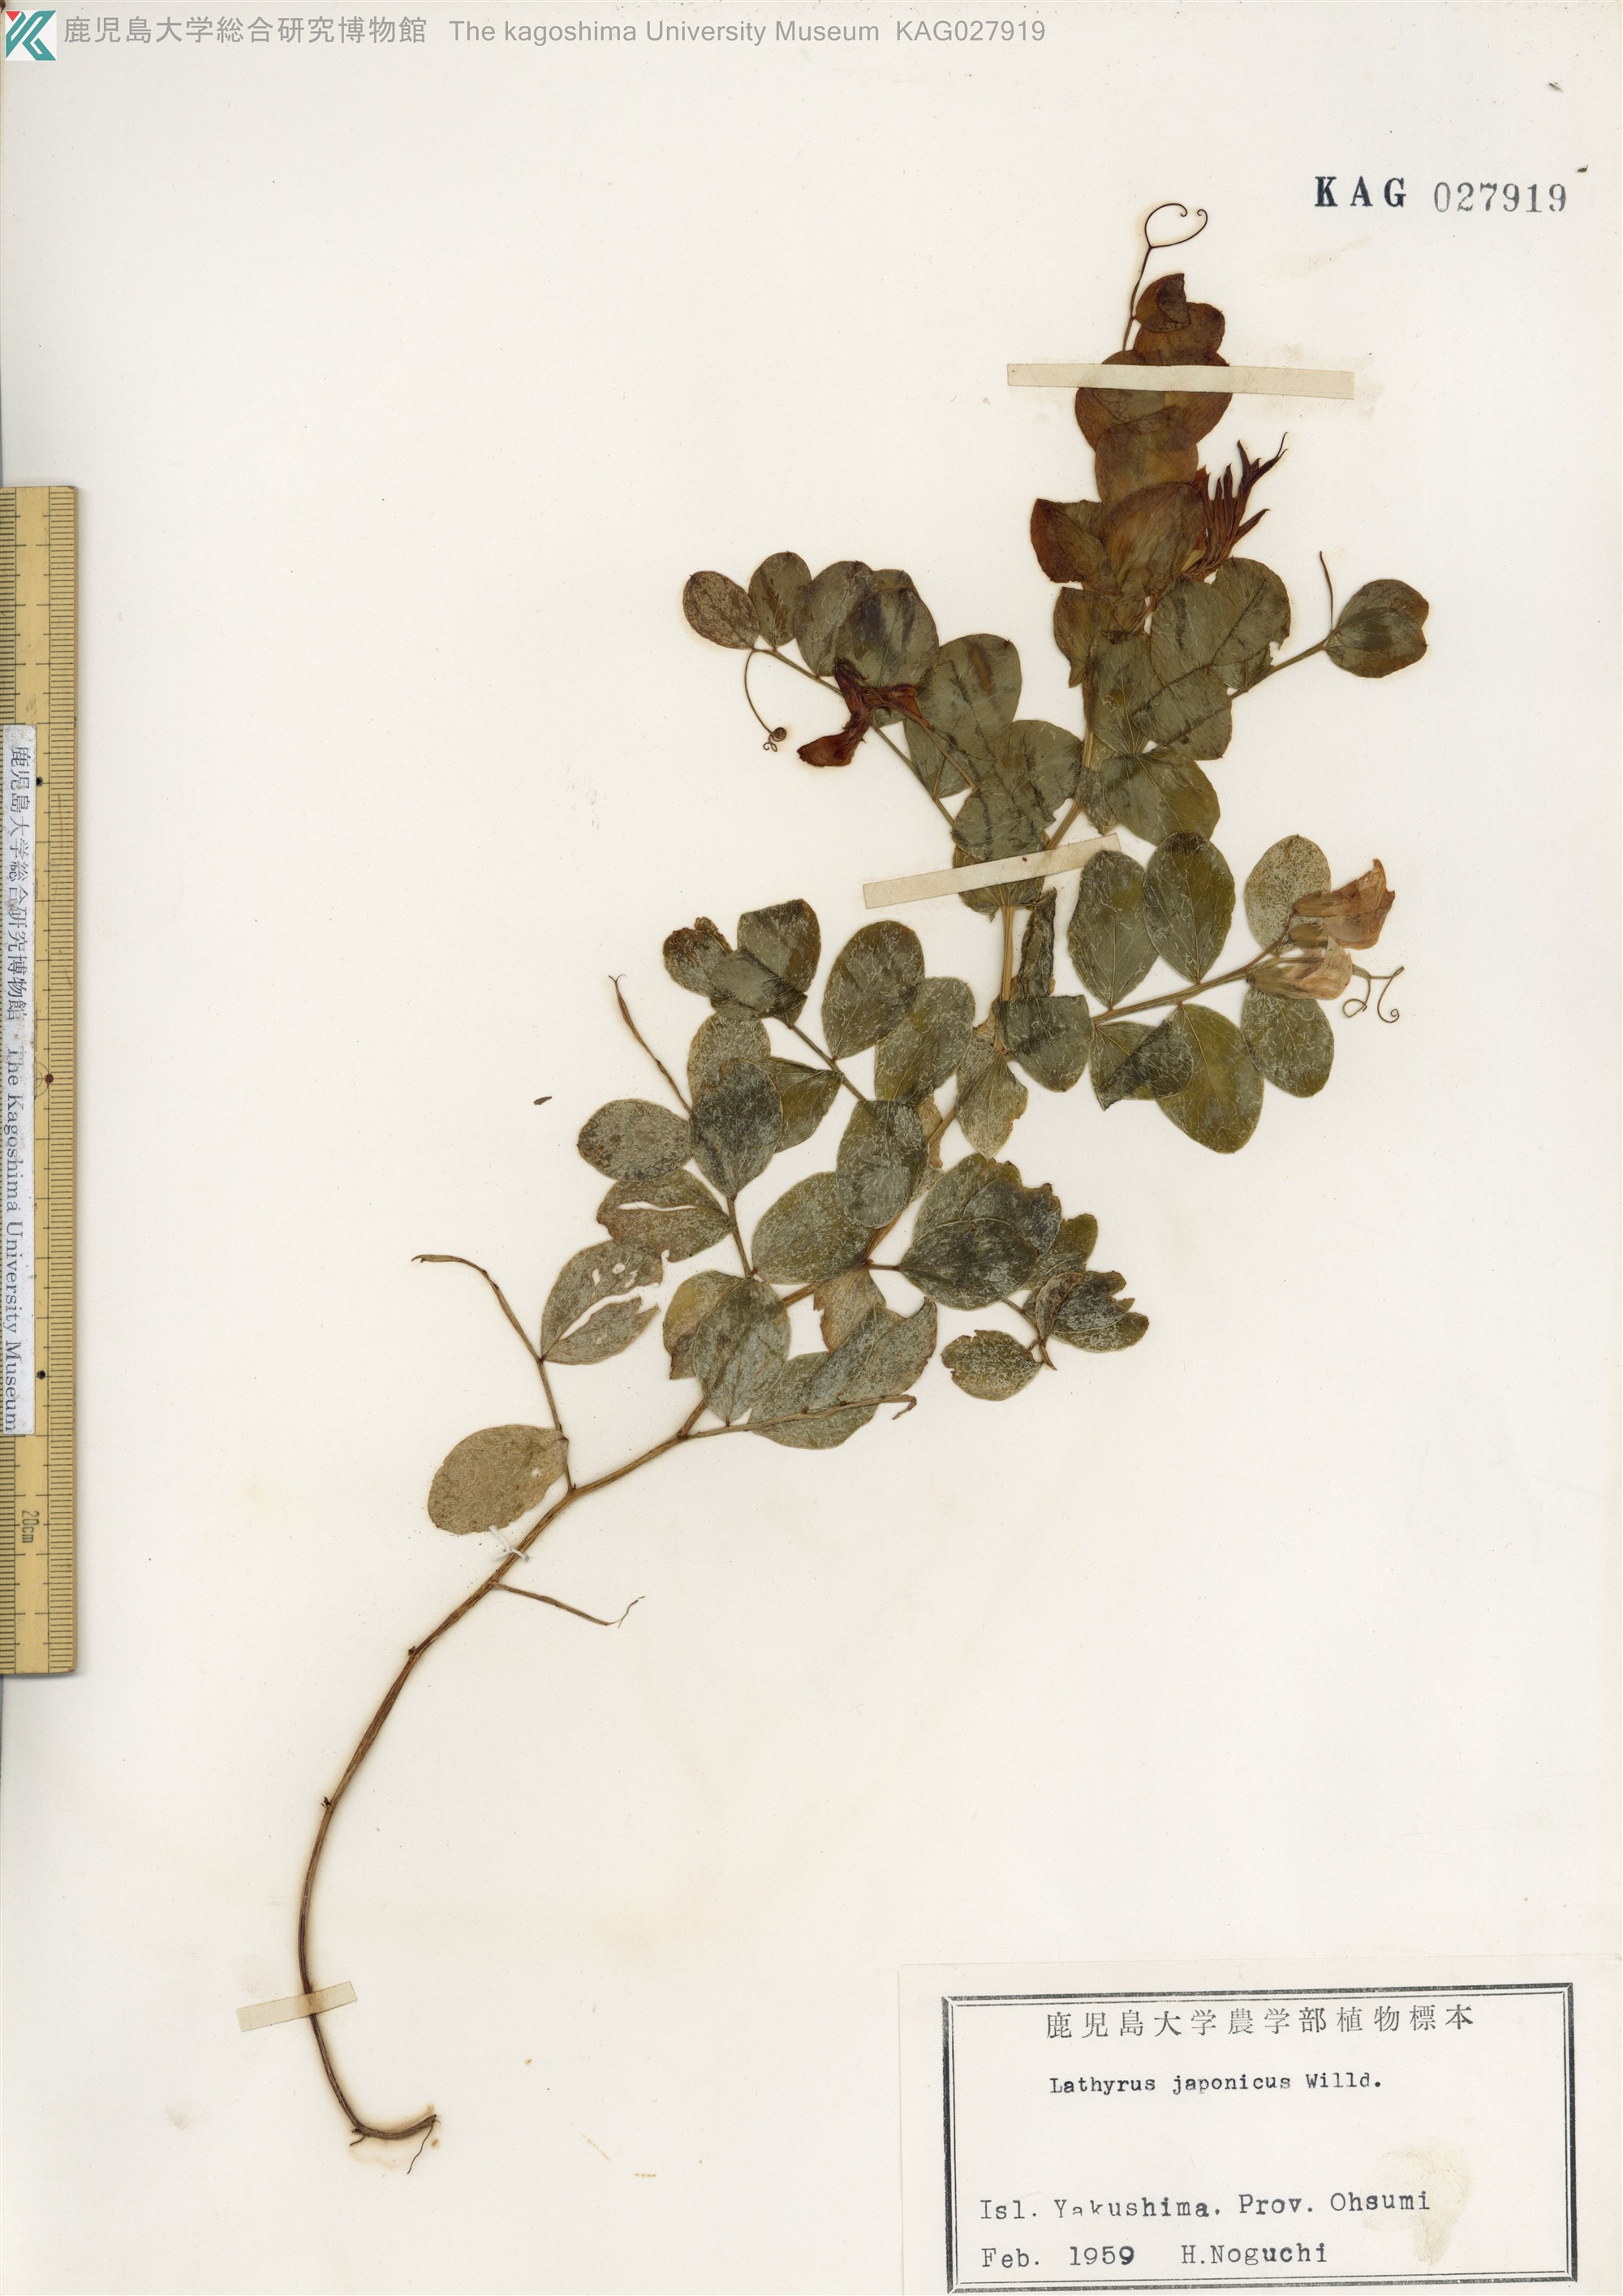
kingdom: Plantae
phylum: Tracheophyta
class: Magnoliopsida
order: Fabales
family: Fabaceae
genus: Lathyrus
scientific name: Lathyrus japonicus
